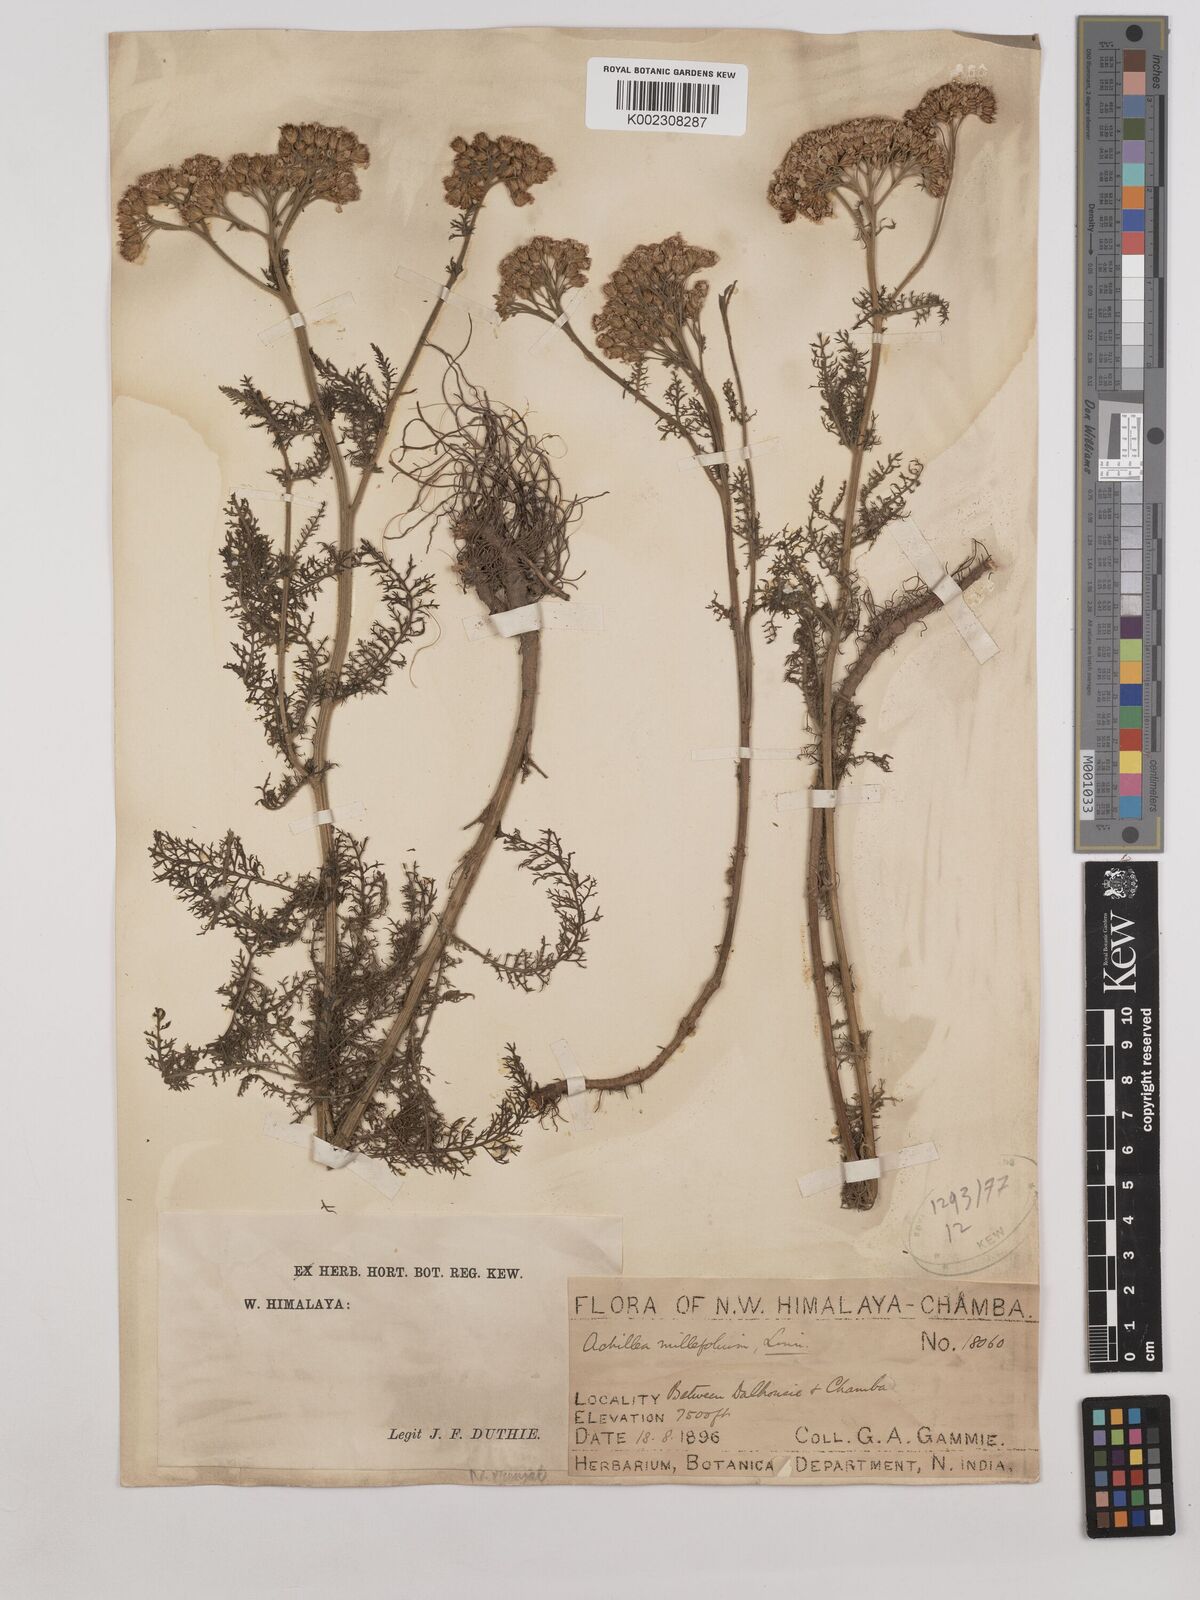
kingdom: Plantae
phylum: Tracheophyta
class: Magnoliopsida
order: Asterales
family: Asteraceae
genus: Achillea
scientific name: Achillea millefolium
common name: Yarrow
